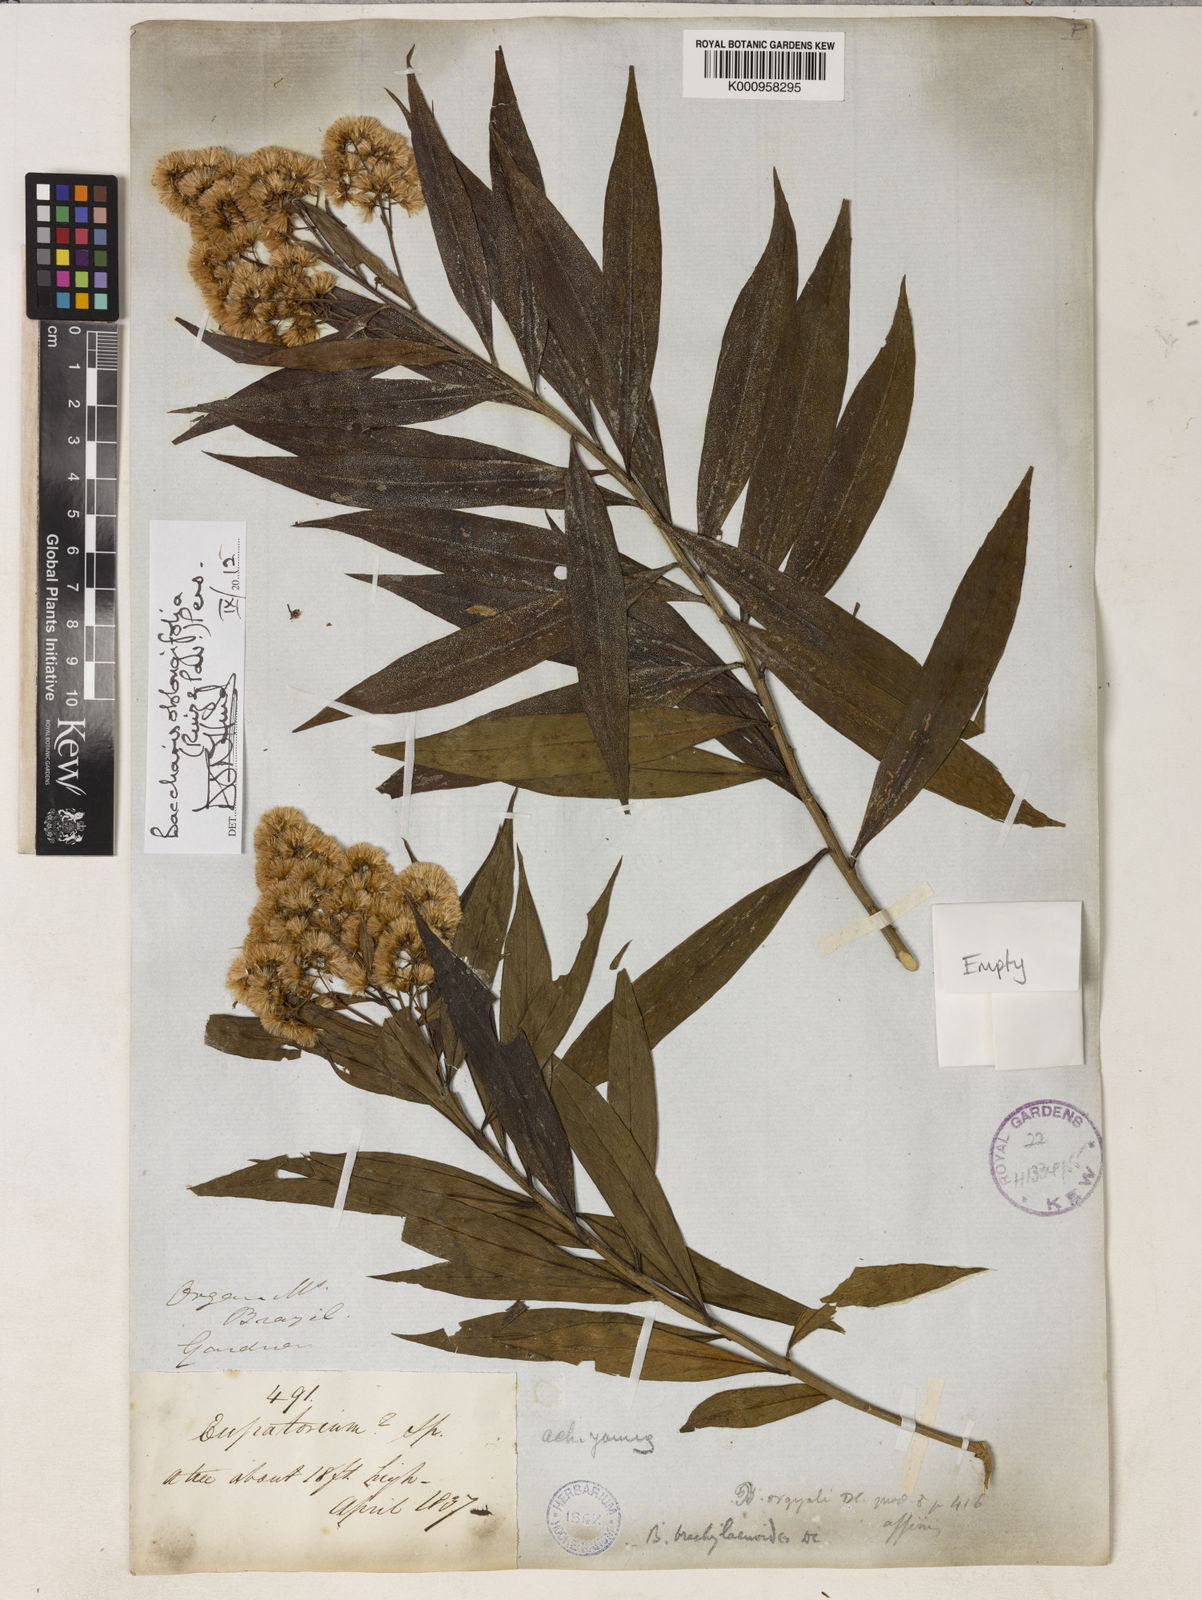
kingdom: Plantae
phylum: Tracheophyta
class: Magnoliopsida
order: Asterales
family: Asteraceae
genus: Baccharis
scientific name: Baccharis oblongifolia
